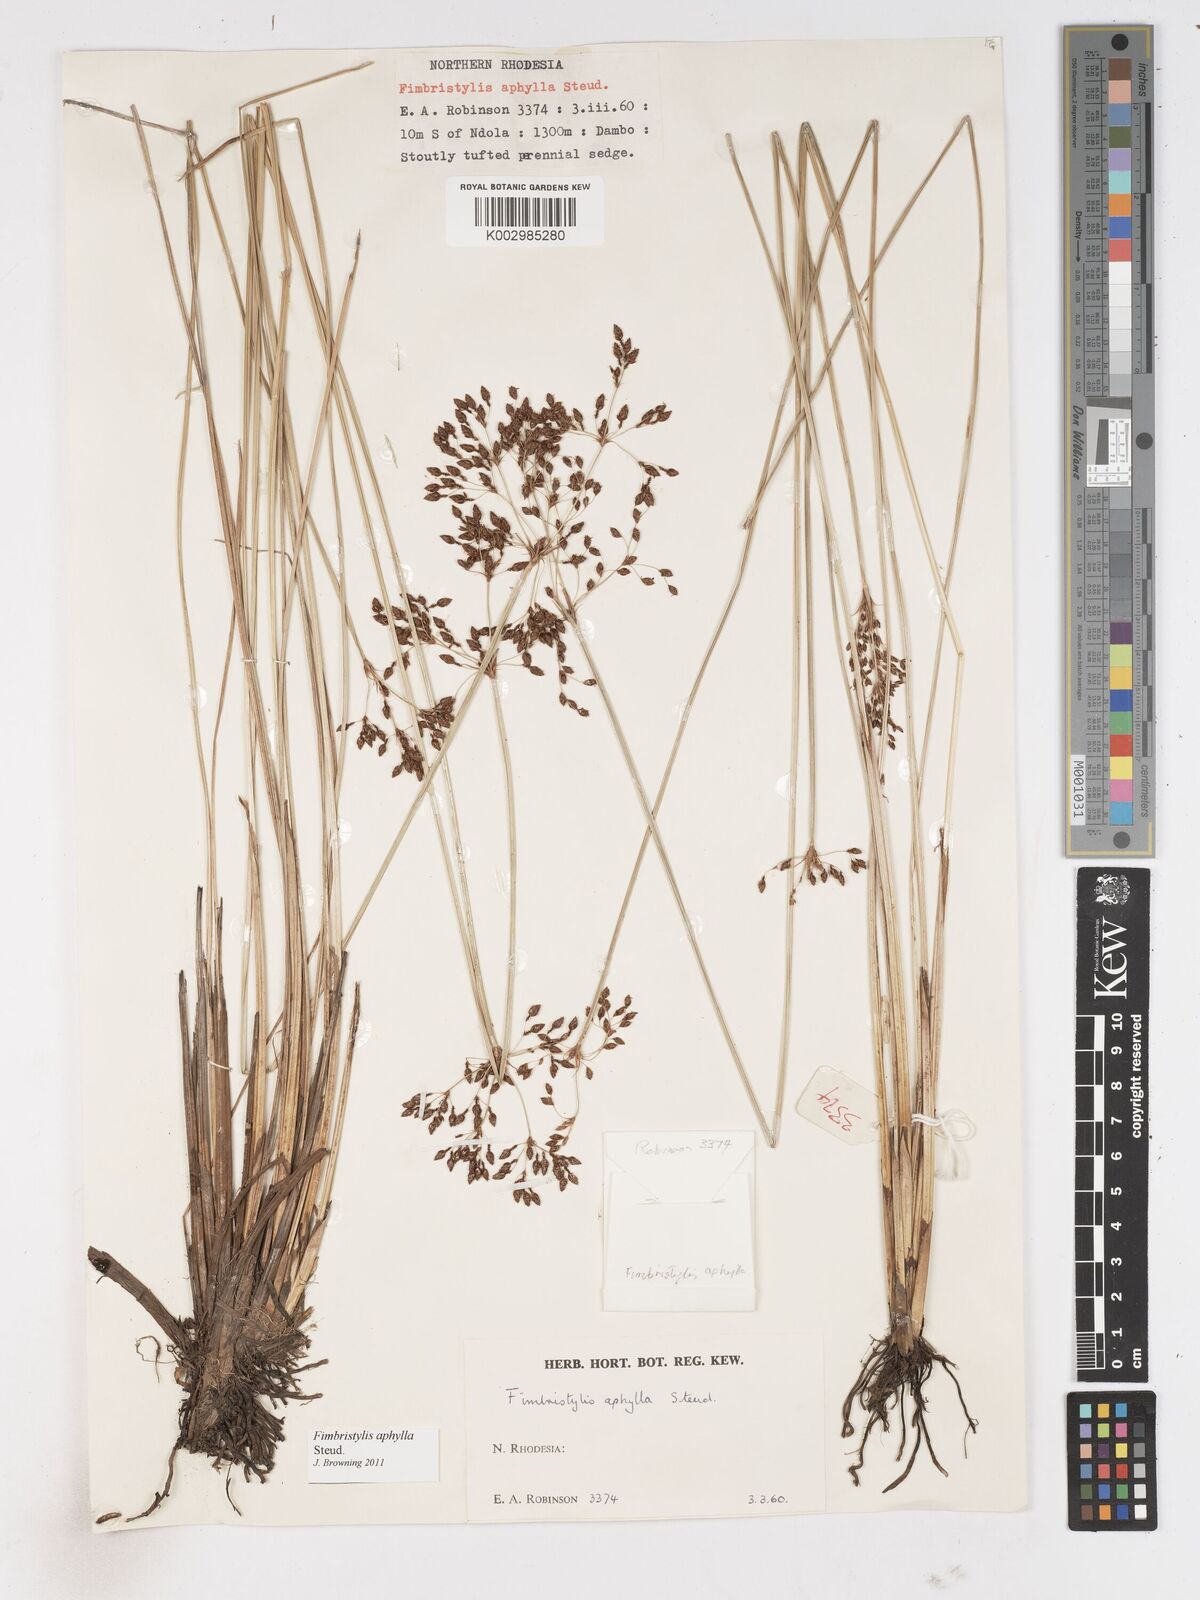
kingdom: Plantae
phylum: Tracheophyta
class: Liliopsida
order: Poales
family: Cyperaceae
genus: Fimbristylis
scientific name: Fimbristylis aphylla
